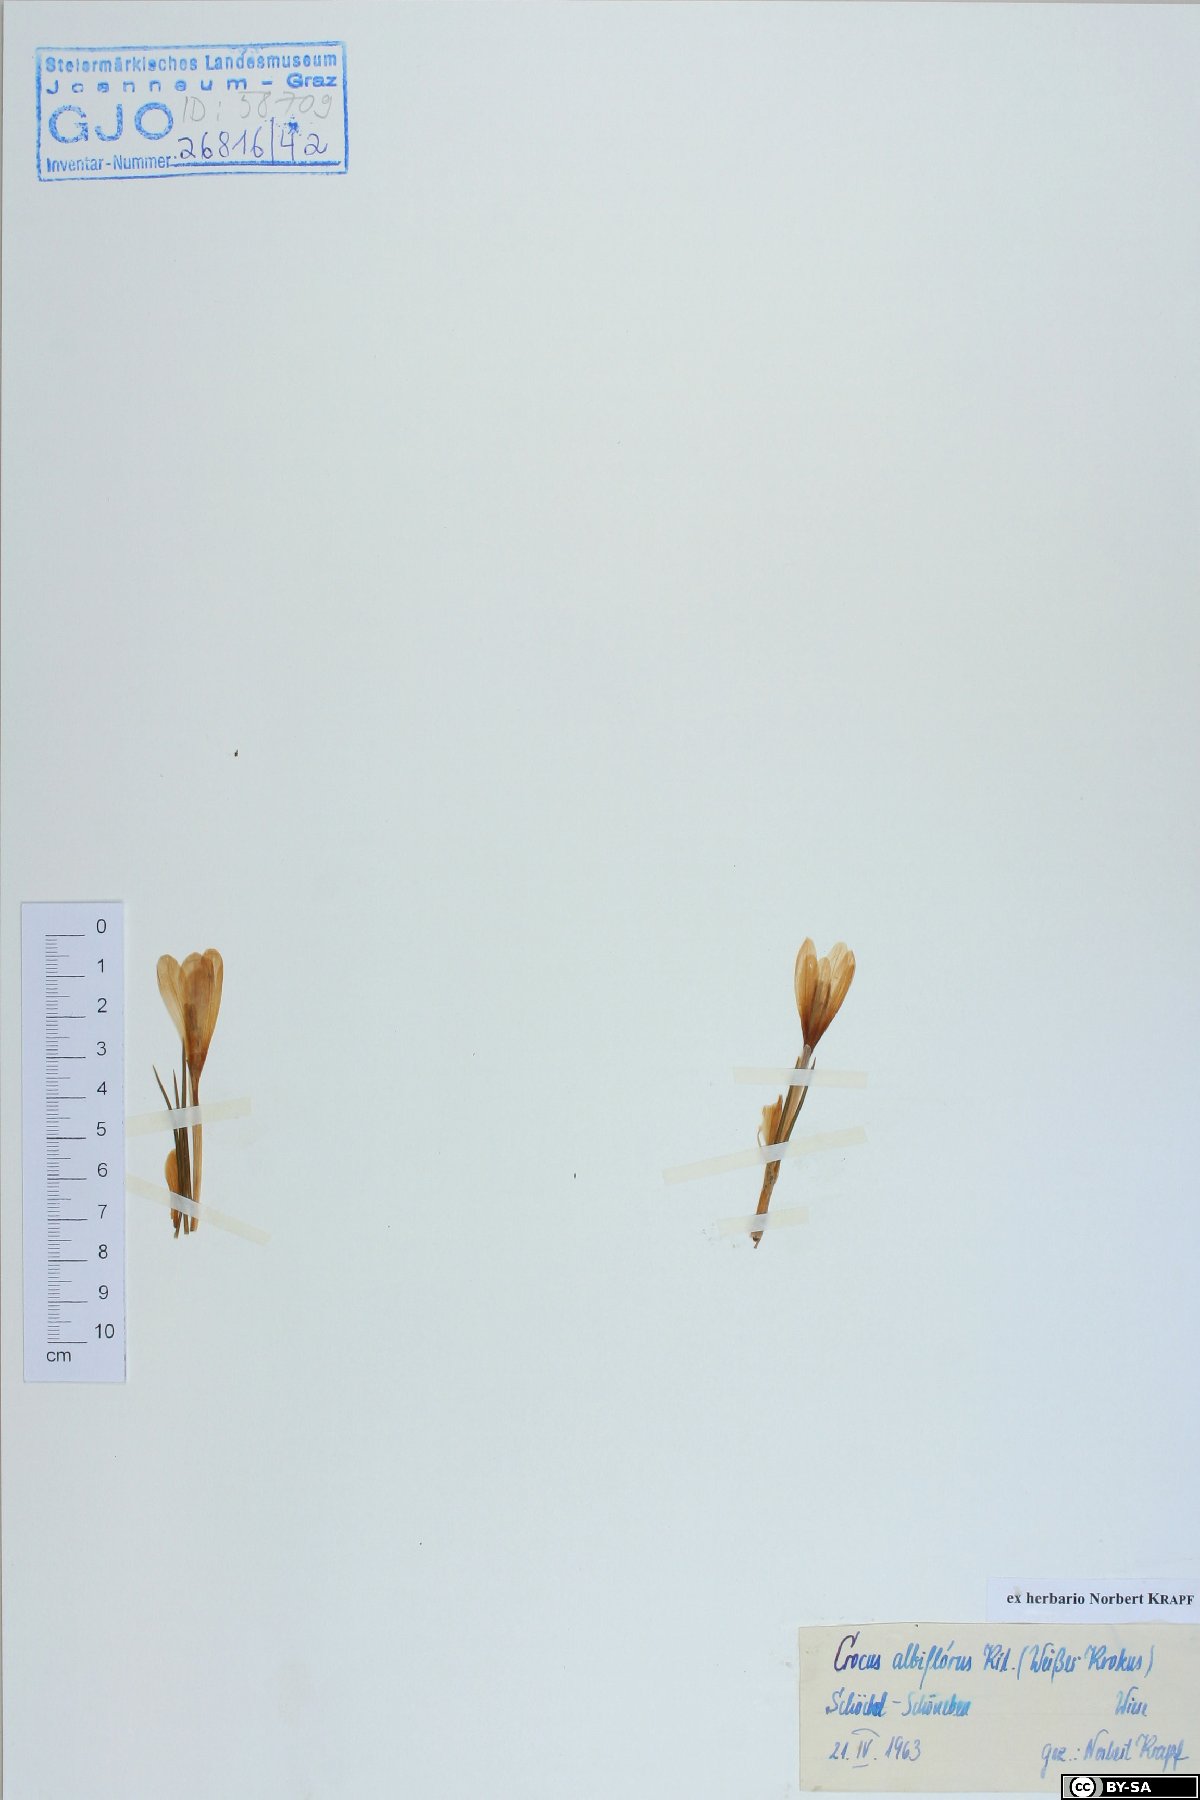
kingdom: Plantae
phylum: Tracheophyta
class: Liliopsida
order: Asparagales
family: Iridaceae
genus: Crocus
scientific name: Crocus vernus
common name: Spring crocus
